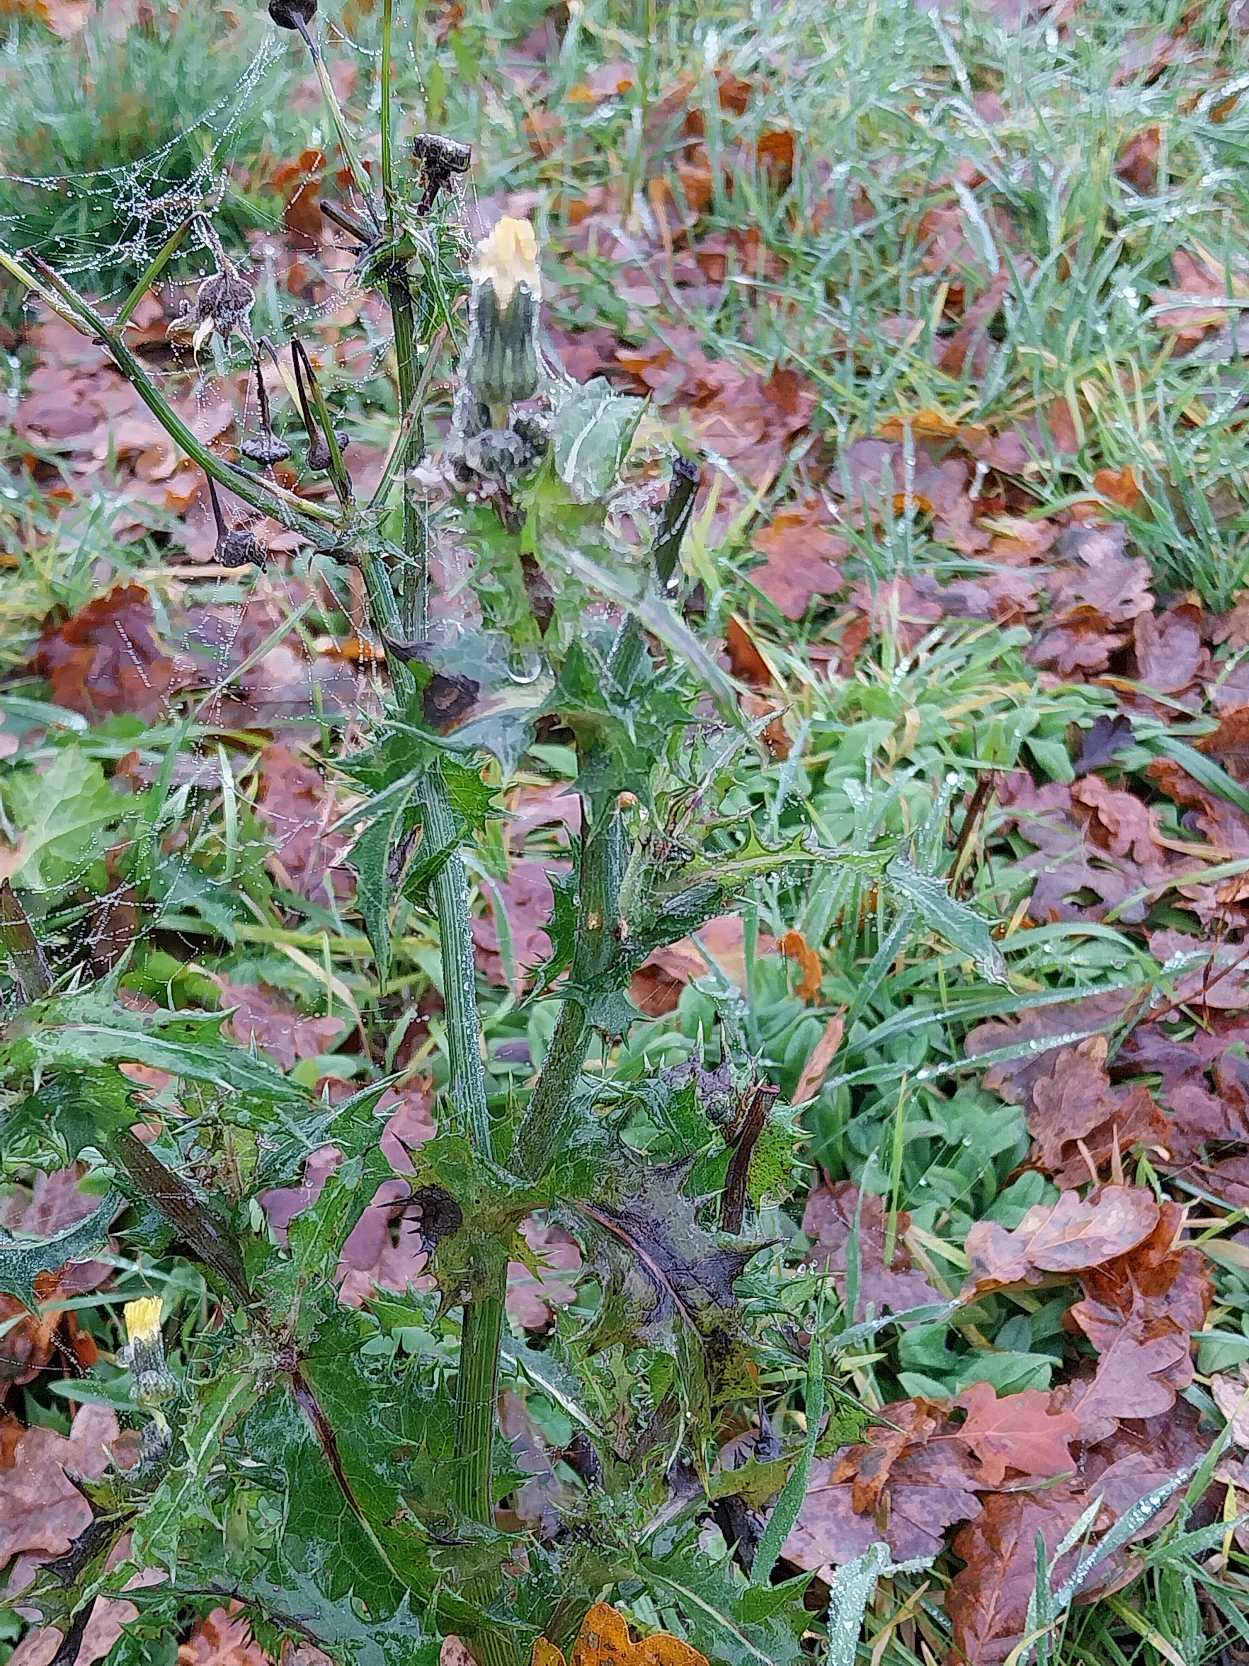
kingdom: Plantae
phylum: Tracheophyta
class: Magnoliopsida
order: Asterales
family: Asteraceae
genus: Sonchus
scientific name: Sonchus asper
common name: Ru svinemælk
